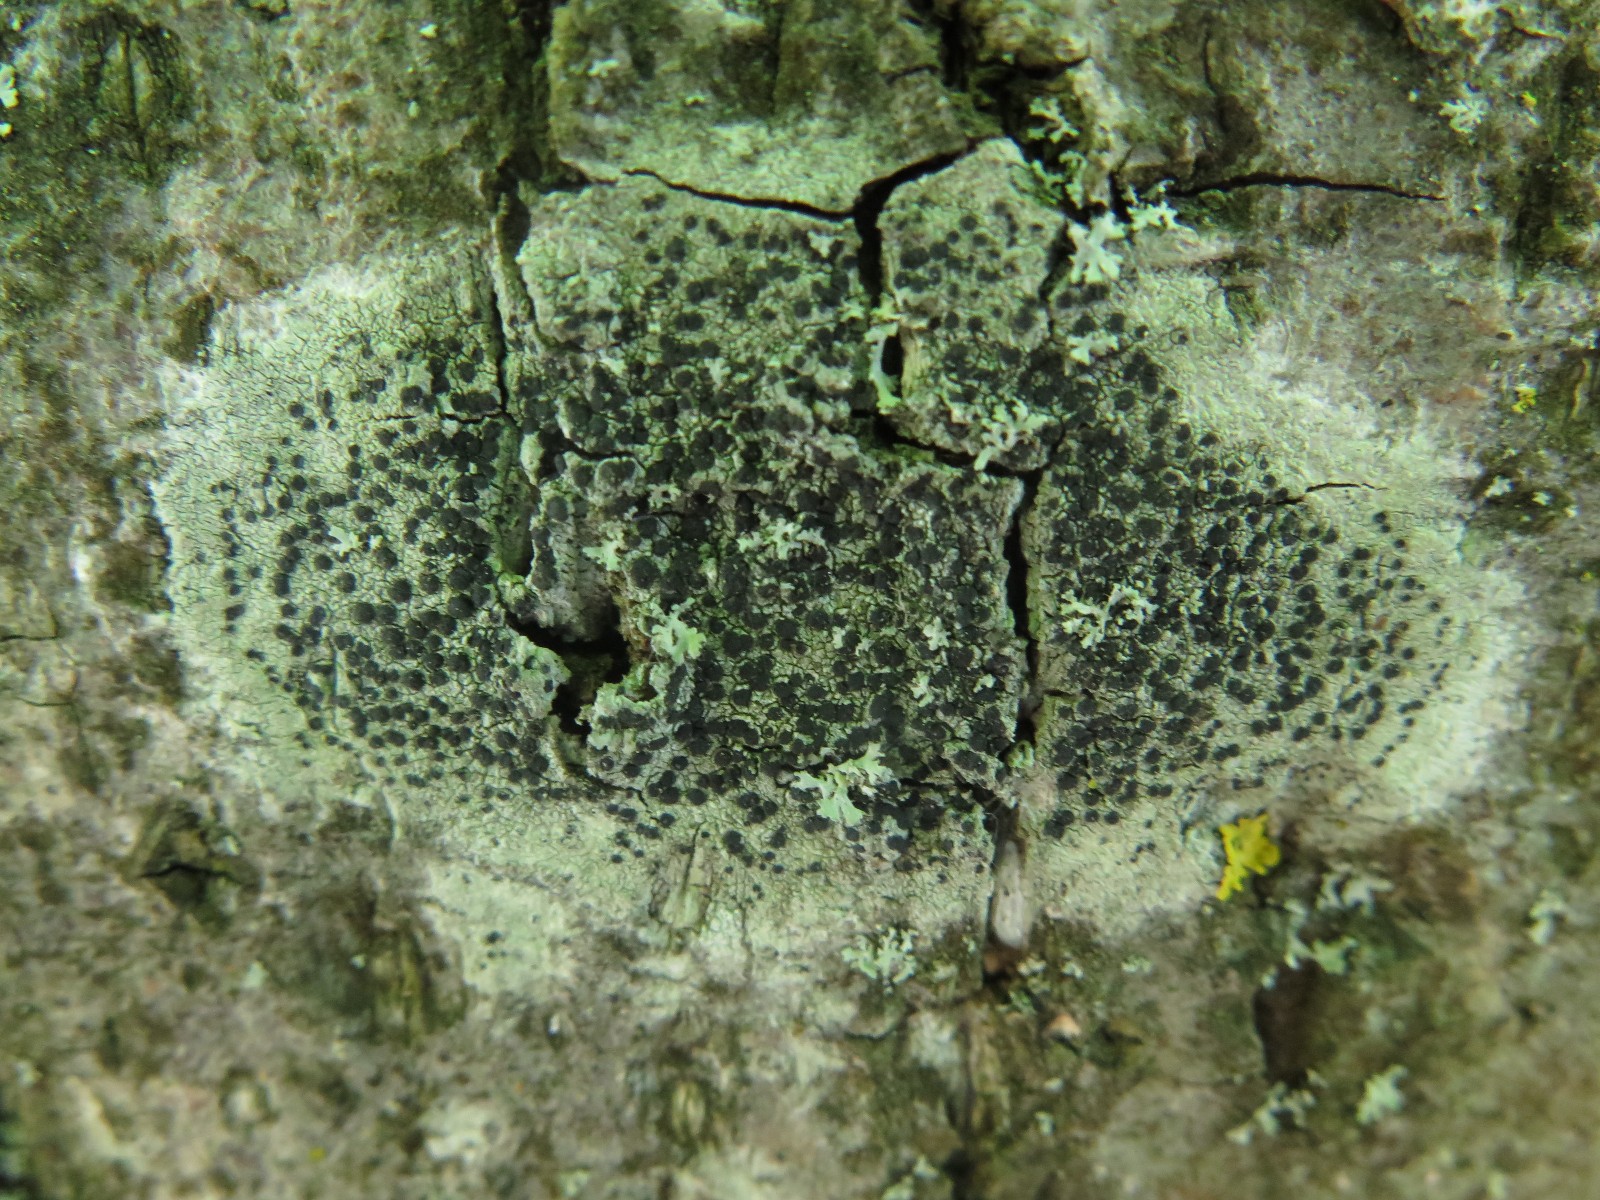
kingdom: Fungi
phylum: Ascomycota
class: Lecanoromycetes
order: Lecanorales
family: Lecanoraceae
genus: Lecidella
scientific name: Lecidella elaeochroma
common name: grågrøn skivelav
